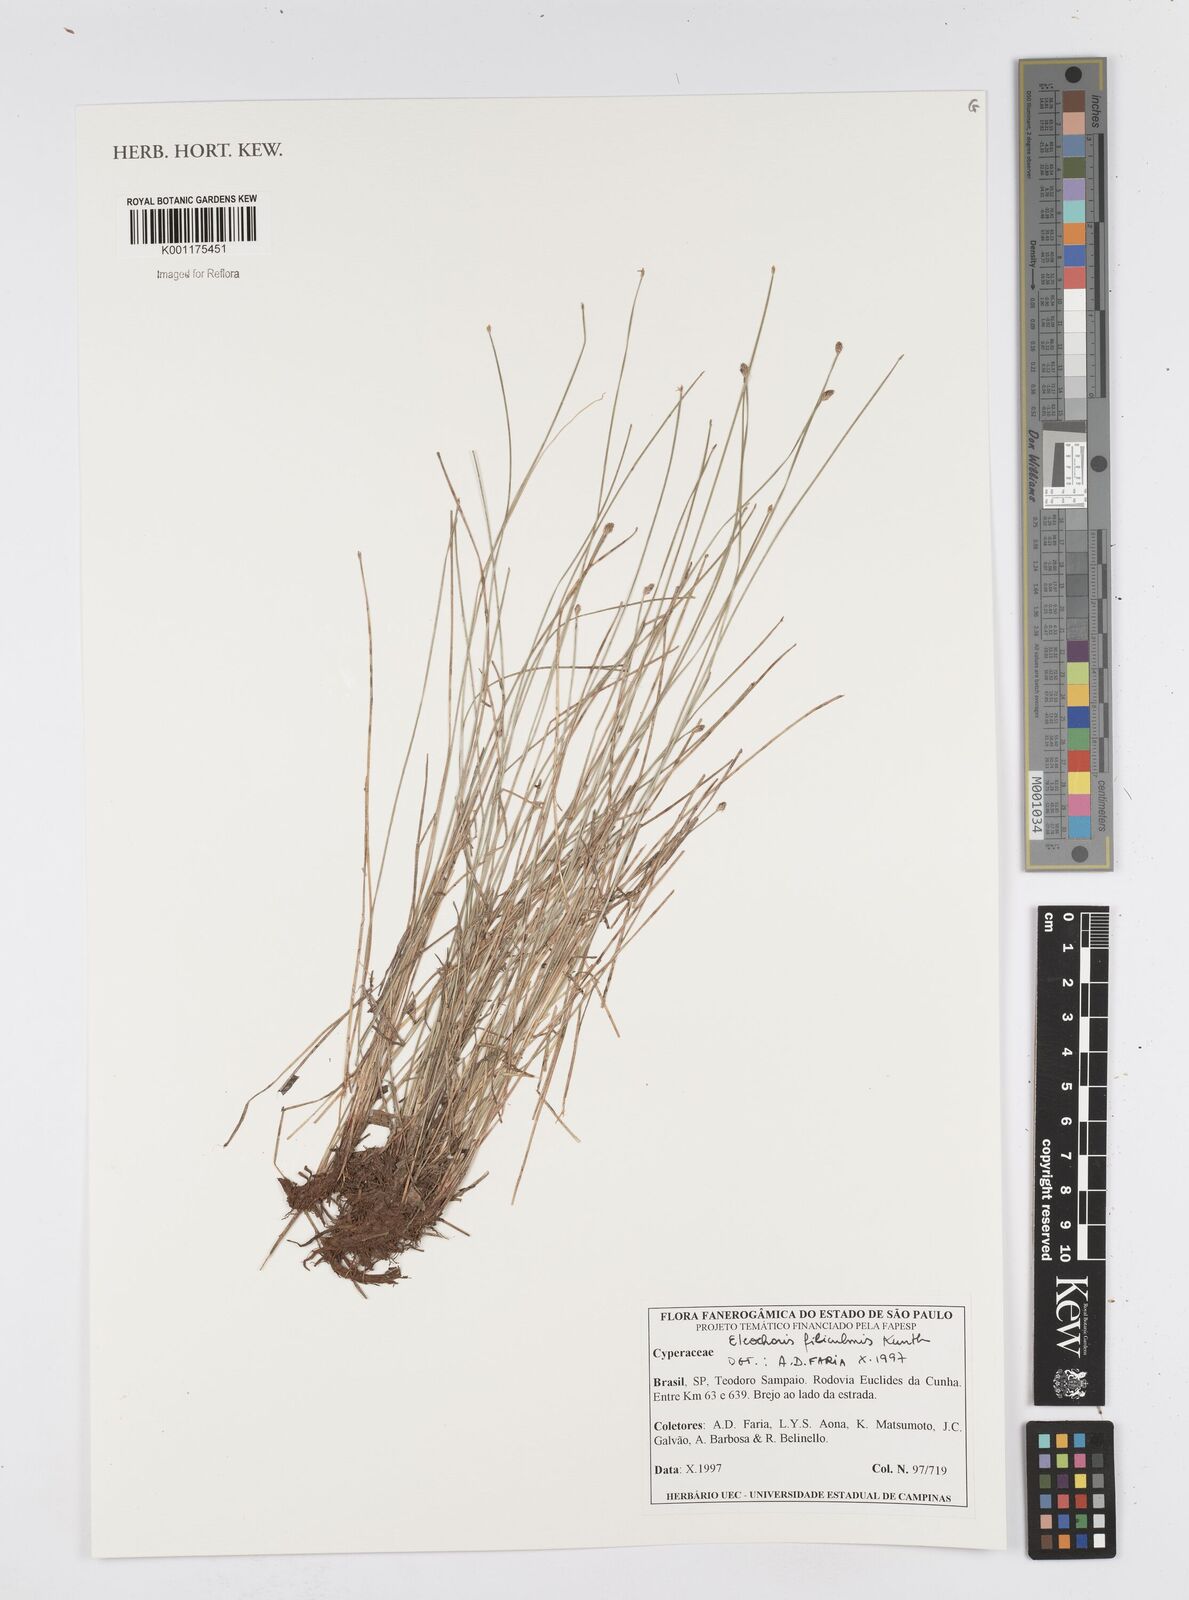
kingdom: Plantae
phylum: Tracheophyta
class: Liliopsida
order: Poales
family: Cyperaceae
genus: Eleocharis
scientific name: Eleocharis filiculmis
